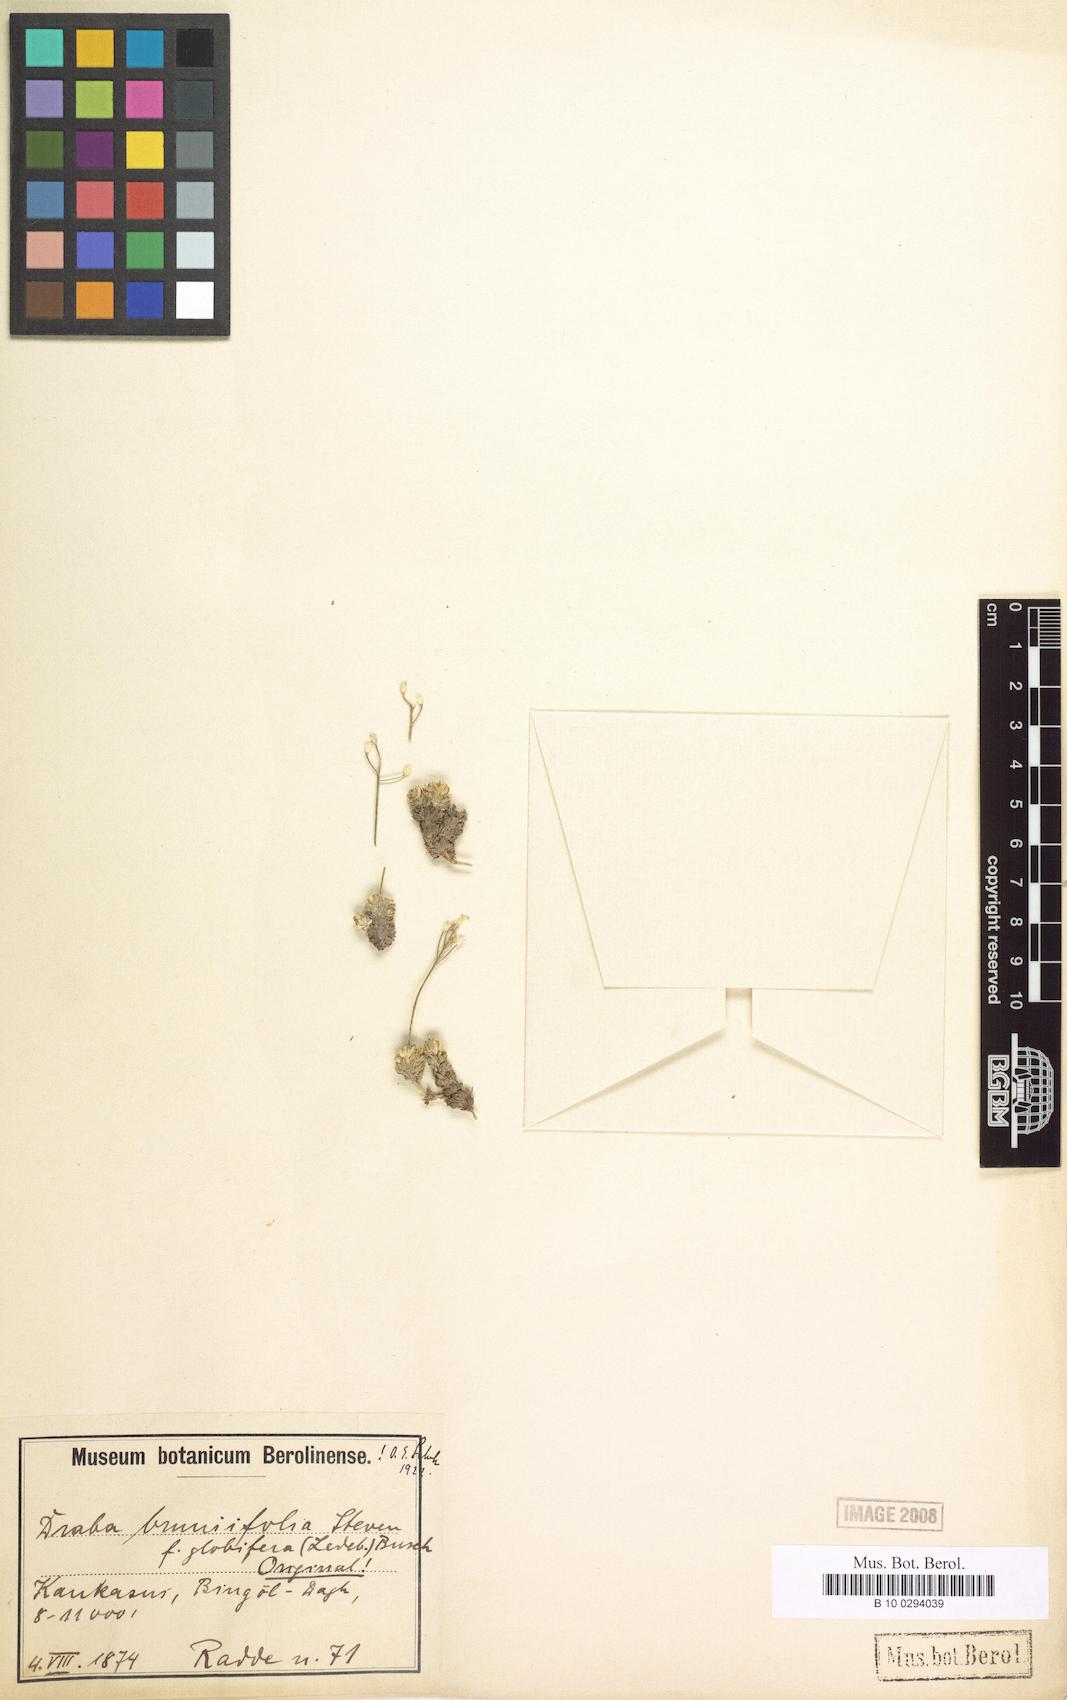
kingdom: Plantae
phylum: Tracheophyta
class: Magnoliopsida
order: Brassicales
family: Brassicaceae
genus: Draba
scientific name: Draba bruniifolia
